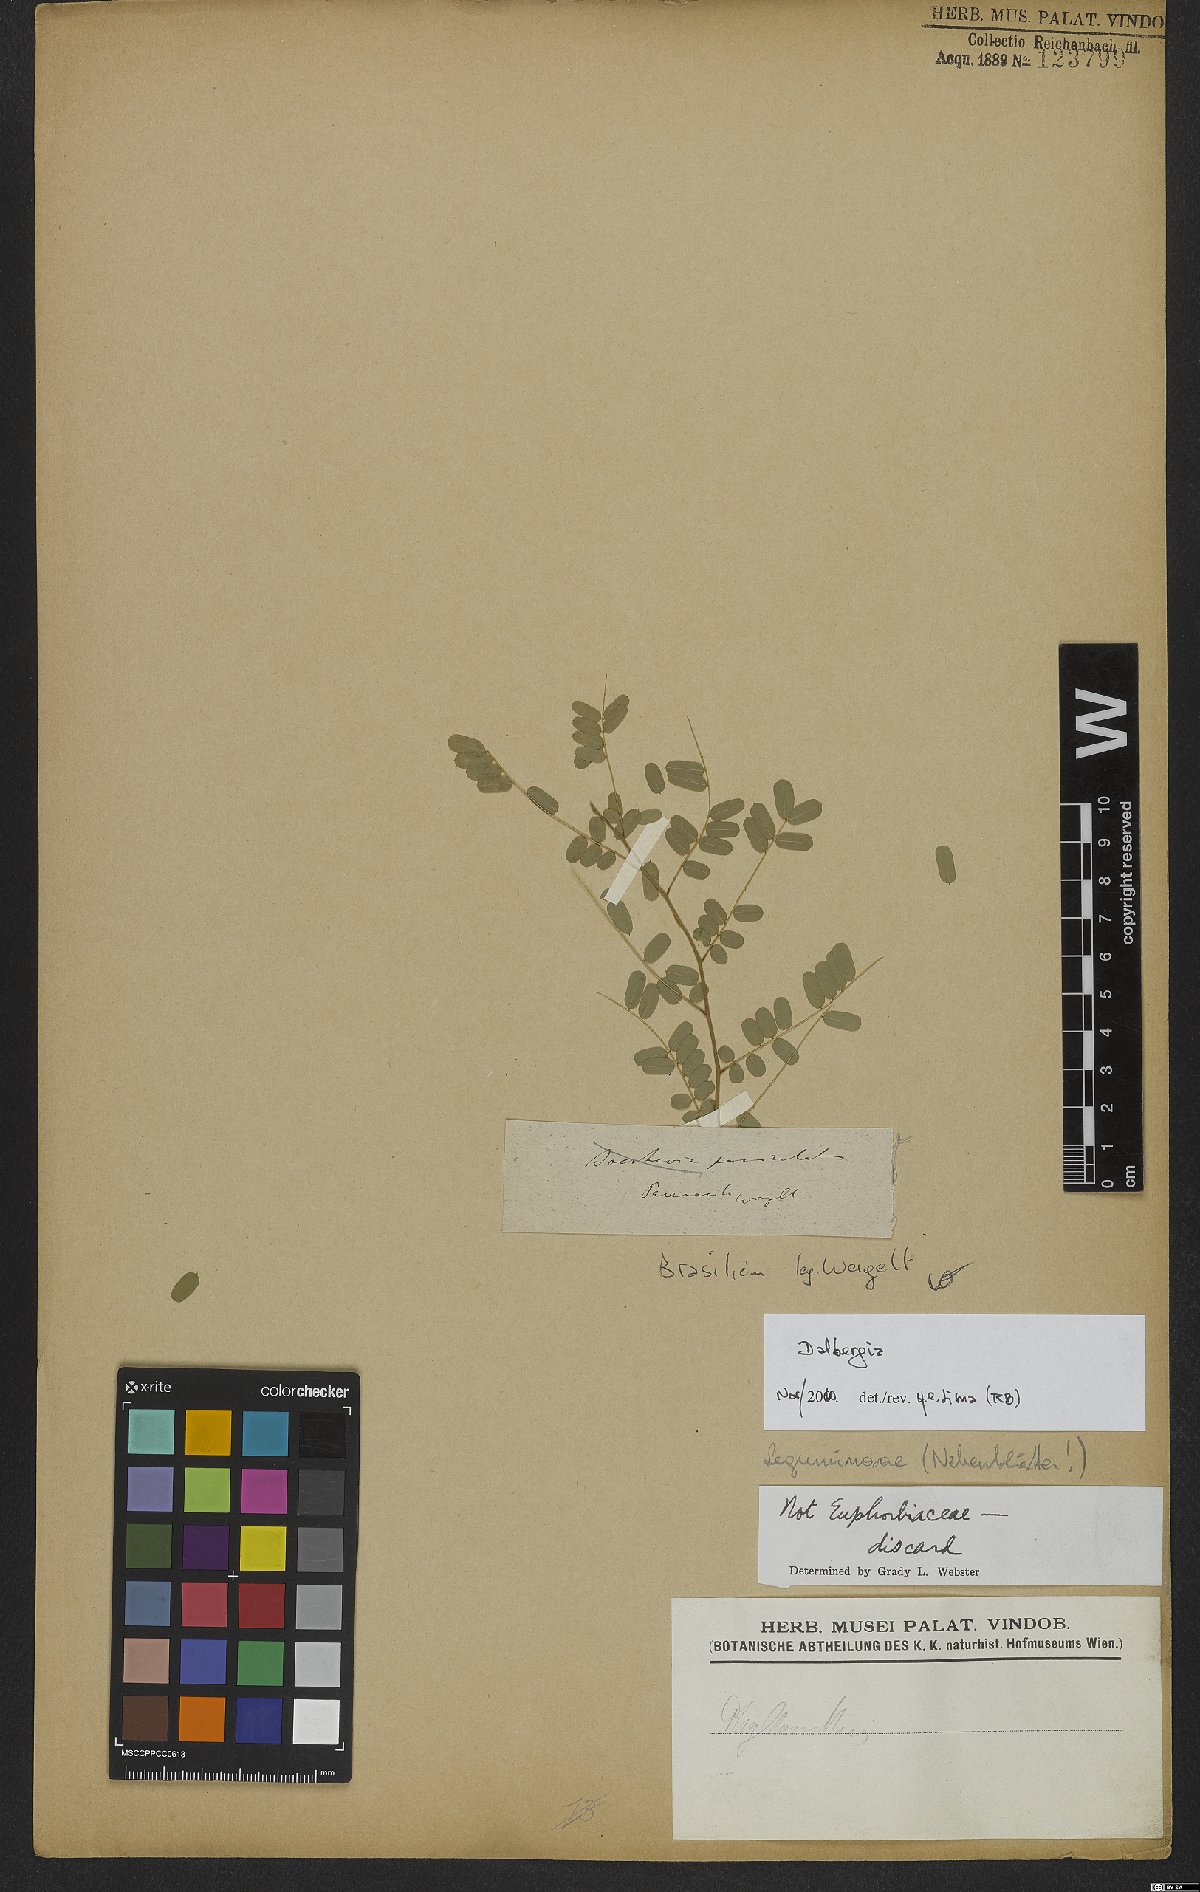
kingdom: Plantae
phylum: Tracheophyta
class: Magnoliopsida
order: Fabales
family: Fabaceae
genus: Dalbergia
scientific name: Dalbergia
